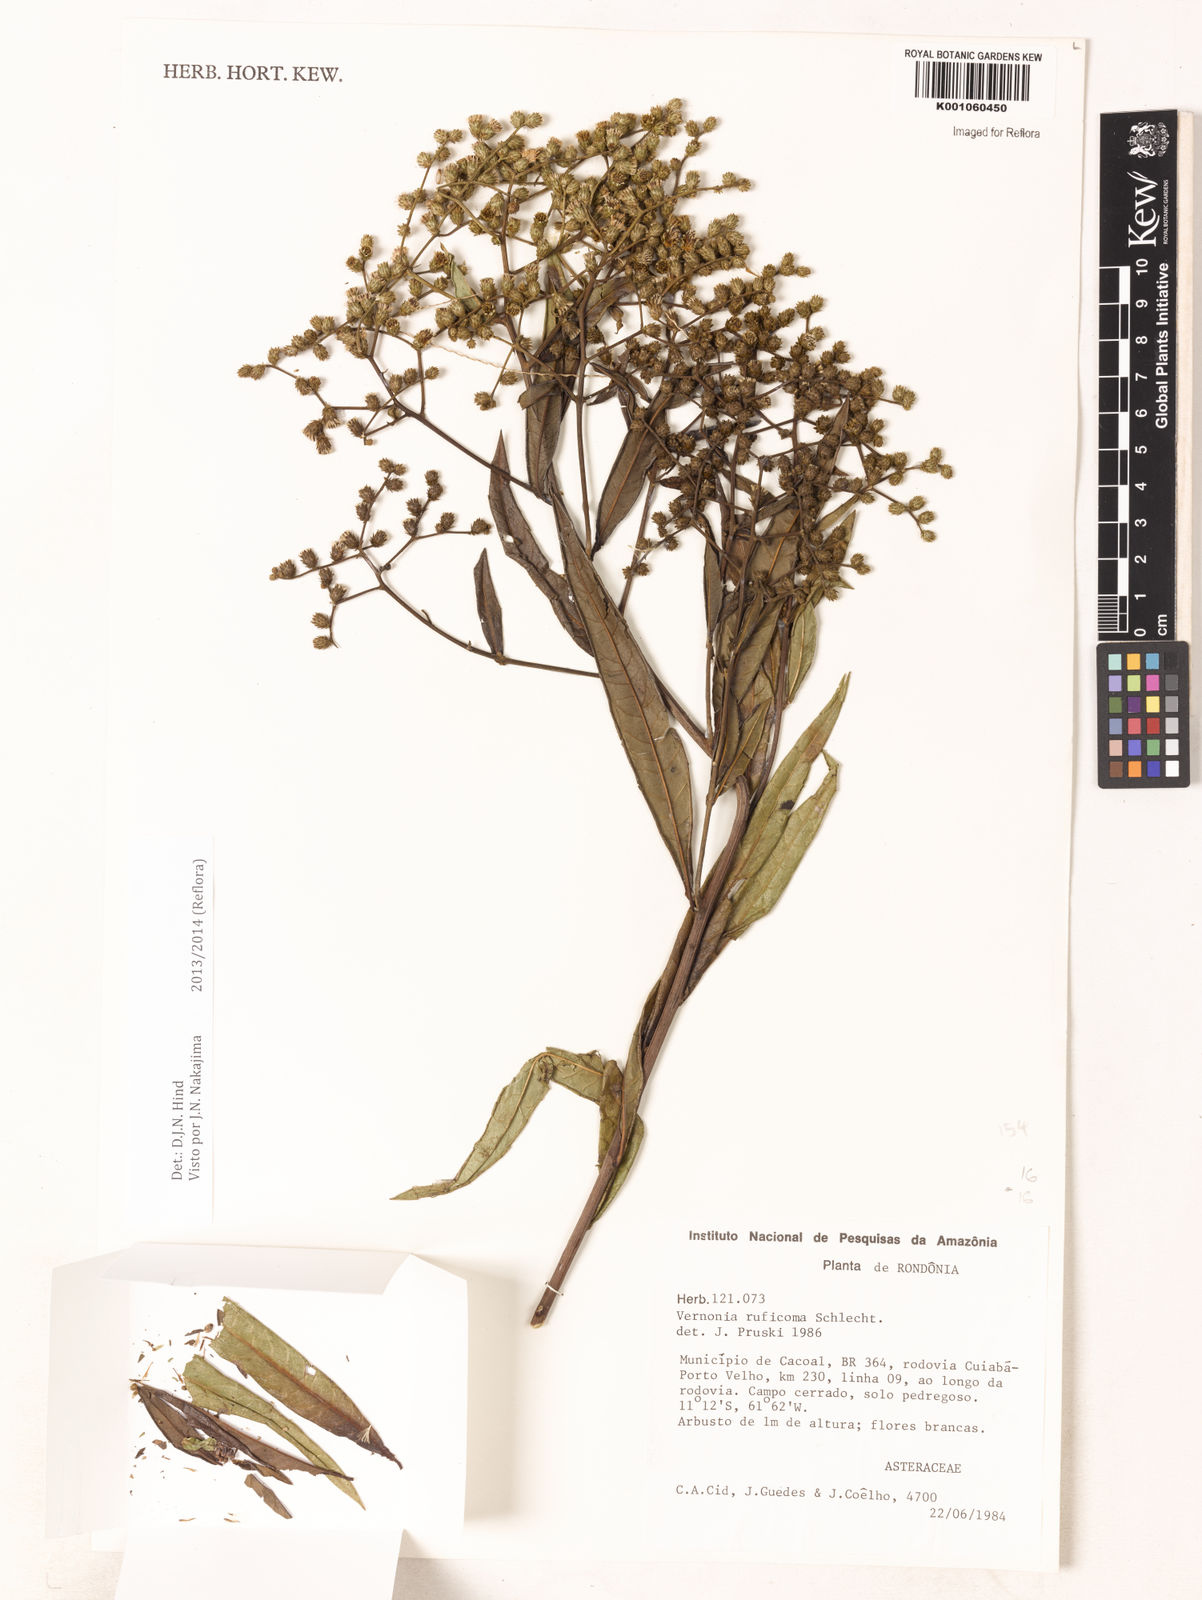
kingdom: Plantae
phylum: Tracheophyta
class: Magnoliopsida
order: Asterales
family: Asteraceae
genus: Vernonia
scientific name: Vernonia
